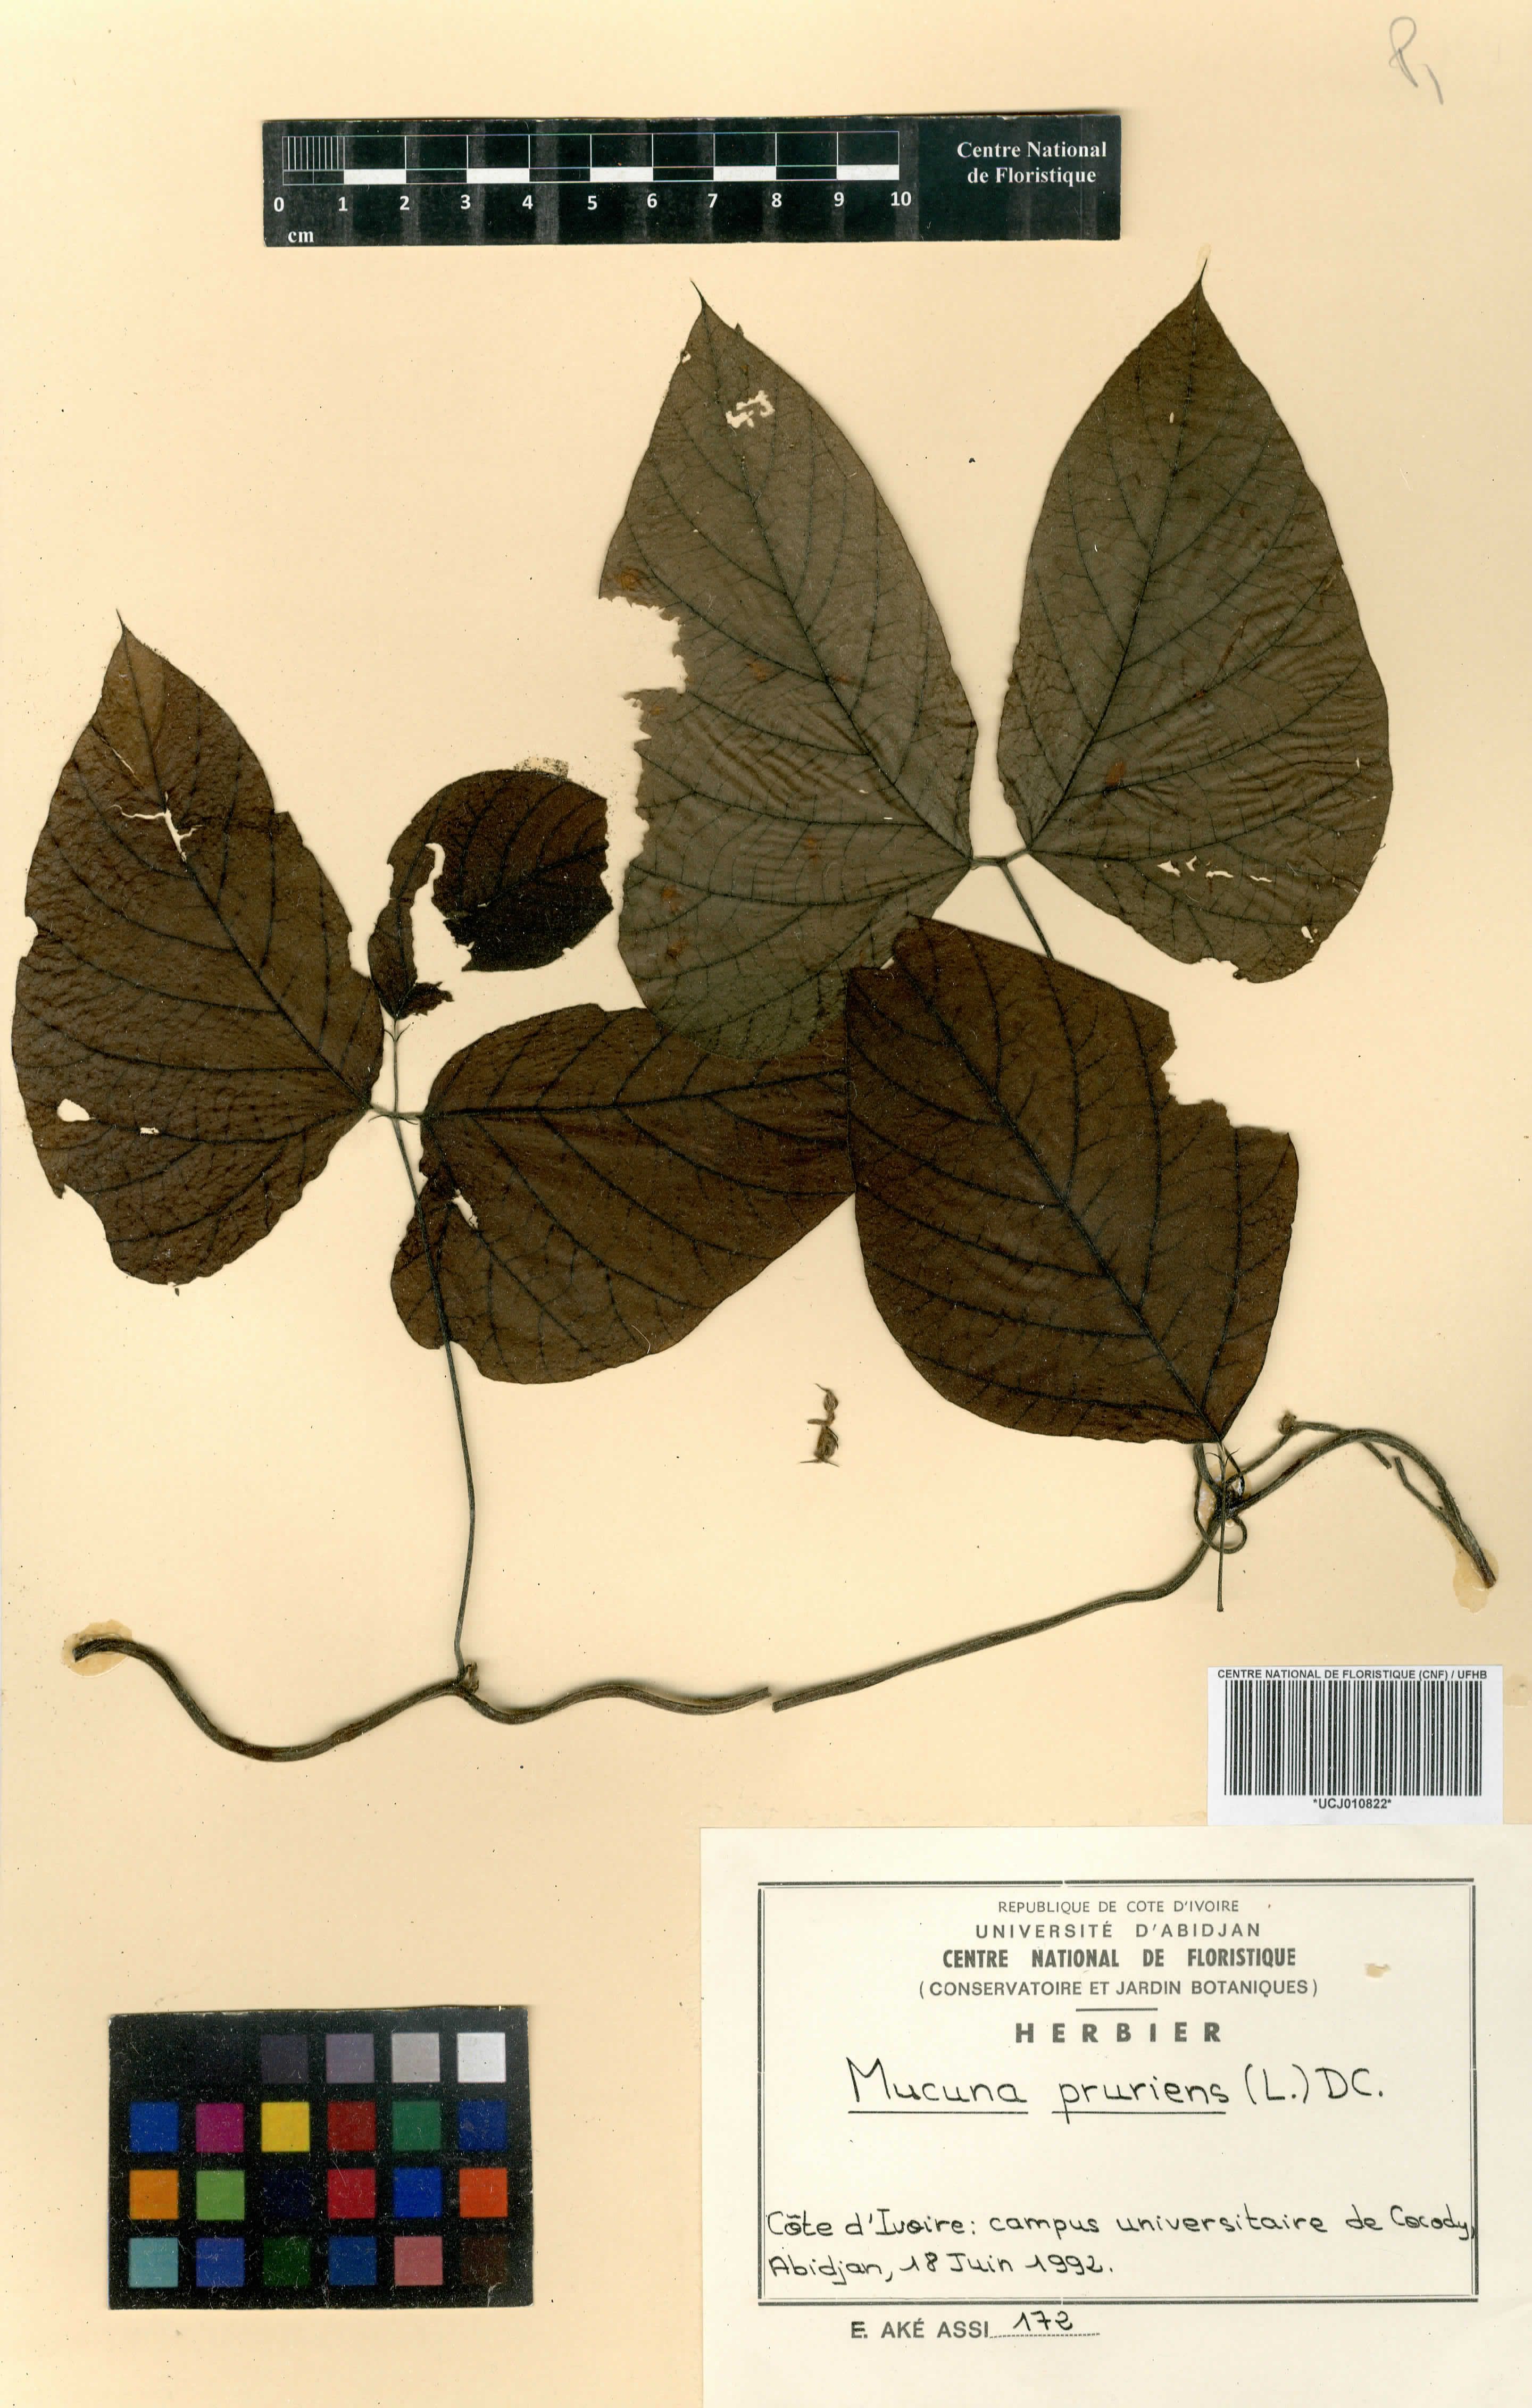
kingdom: Plantae
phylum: Tracheophyta
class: Magnoliopsida
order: Fabales
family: Fabaceae
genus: Mucuna
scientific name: Mucuna pruriens
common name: Cow-itch
